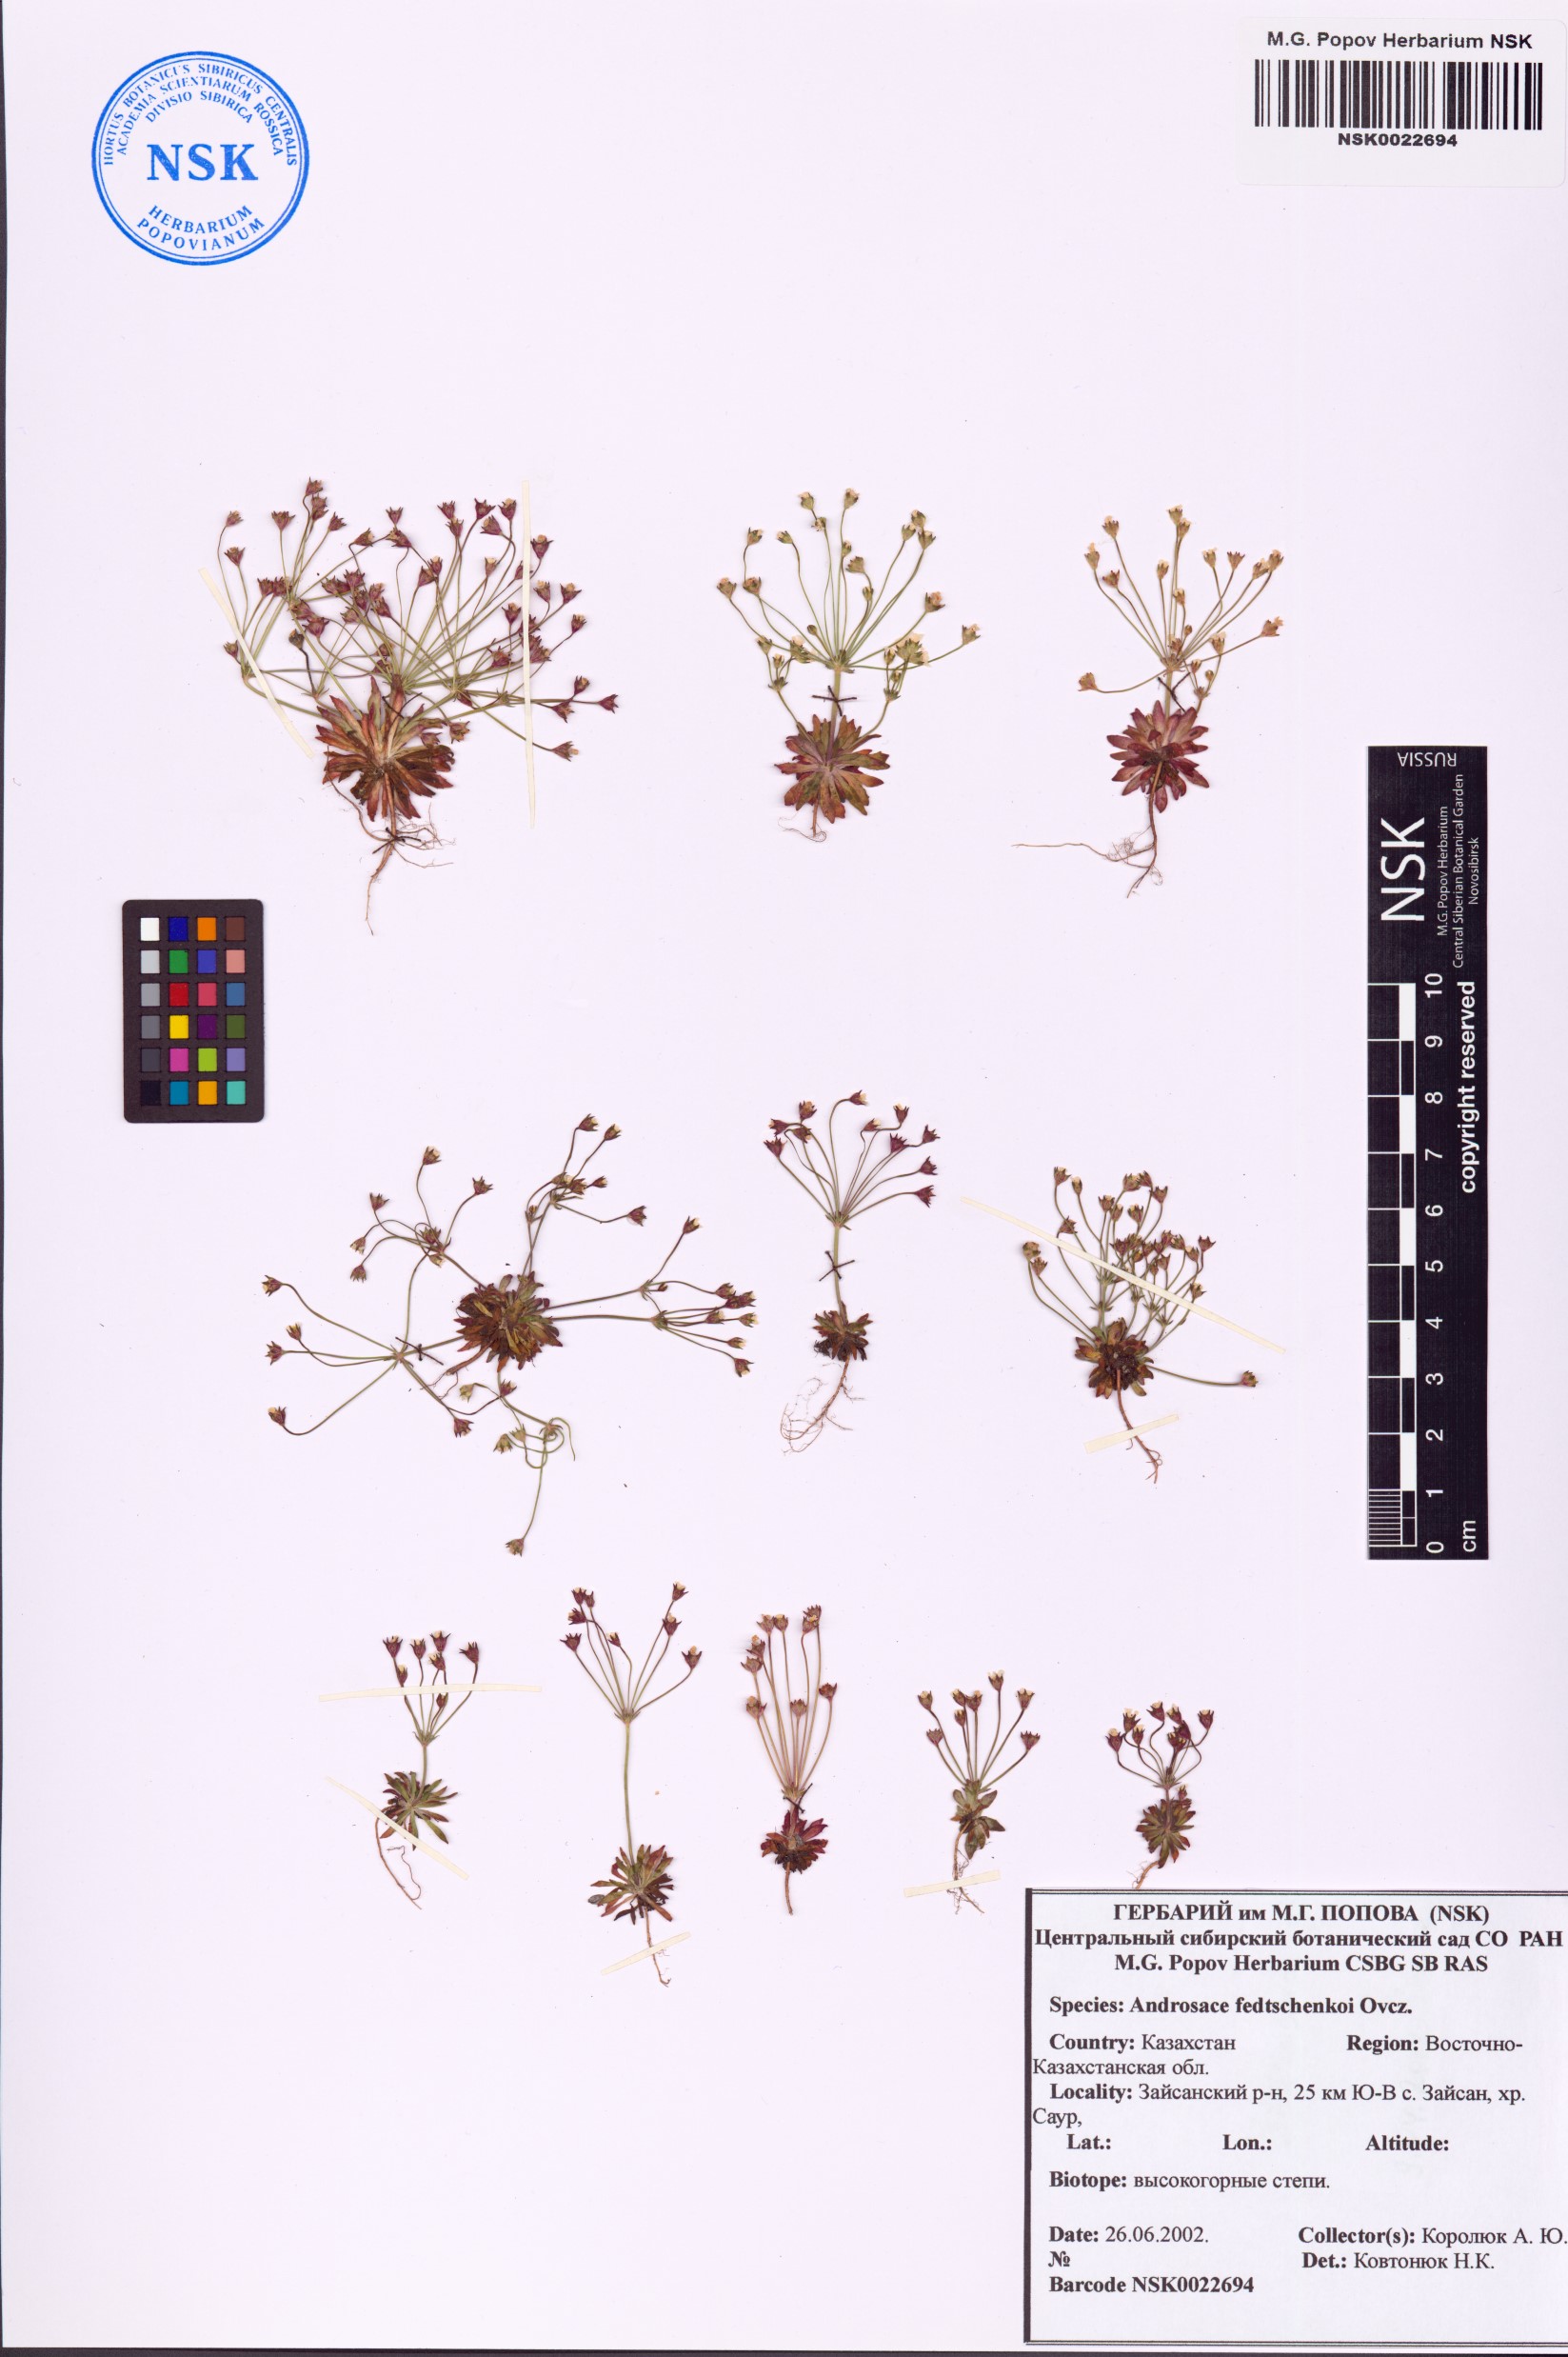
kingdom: Plantae
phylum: Tracheophyta
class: Magnoliopsida
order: Ericales
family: Primulaceae
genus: Androsace
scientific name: Androsace fedtschenkoi
